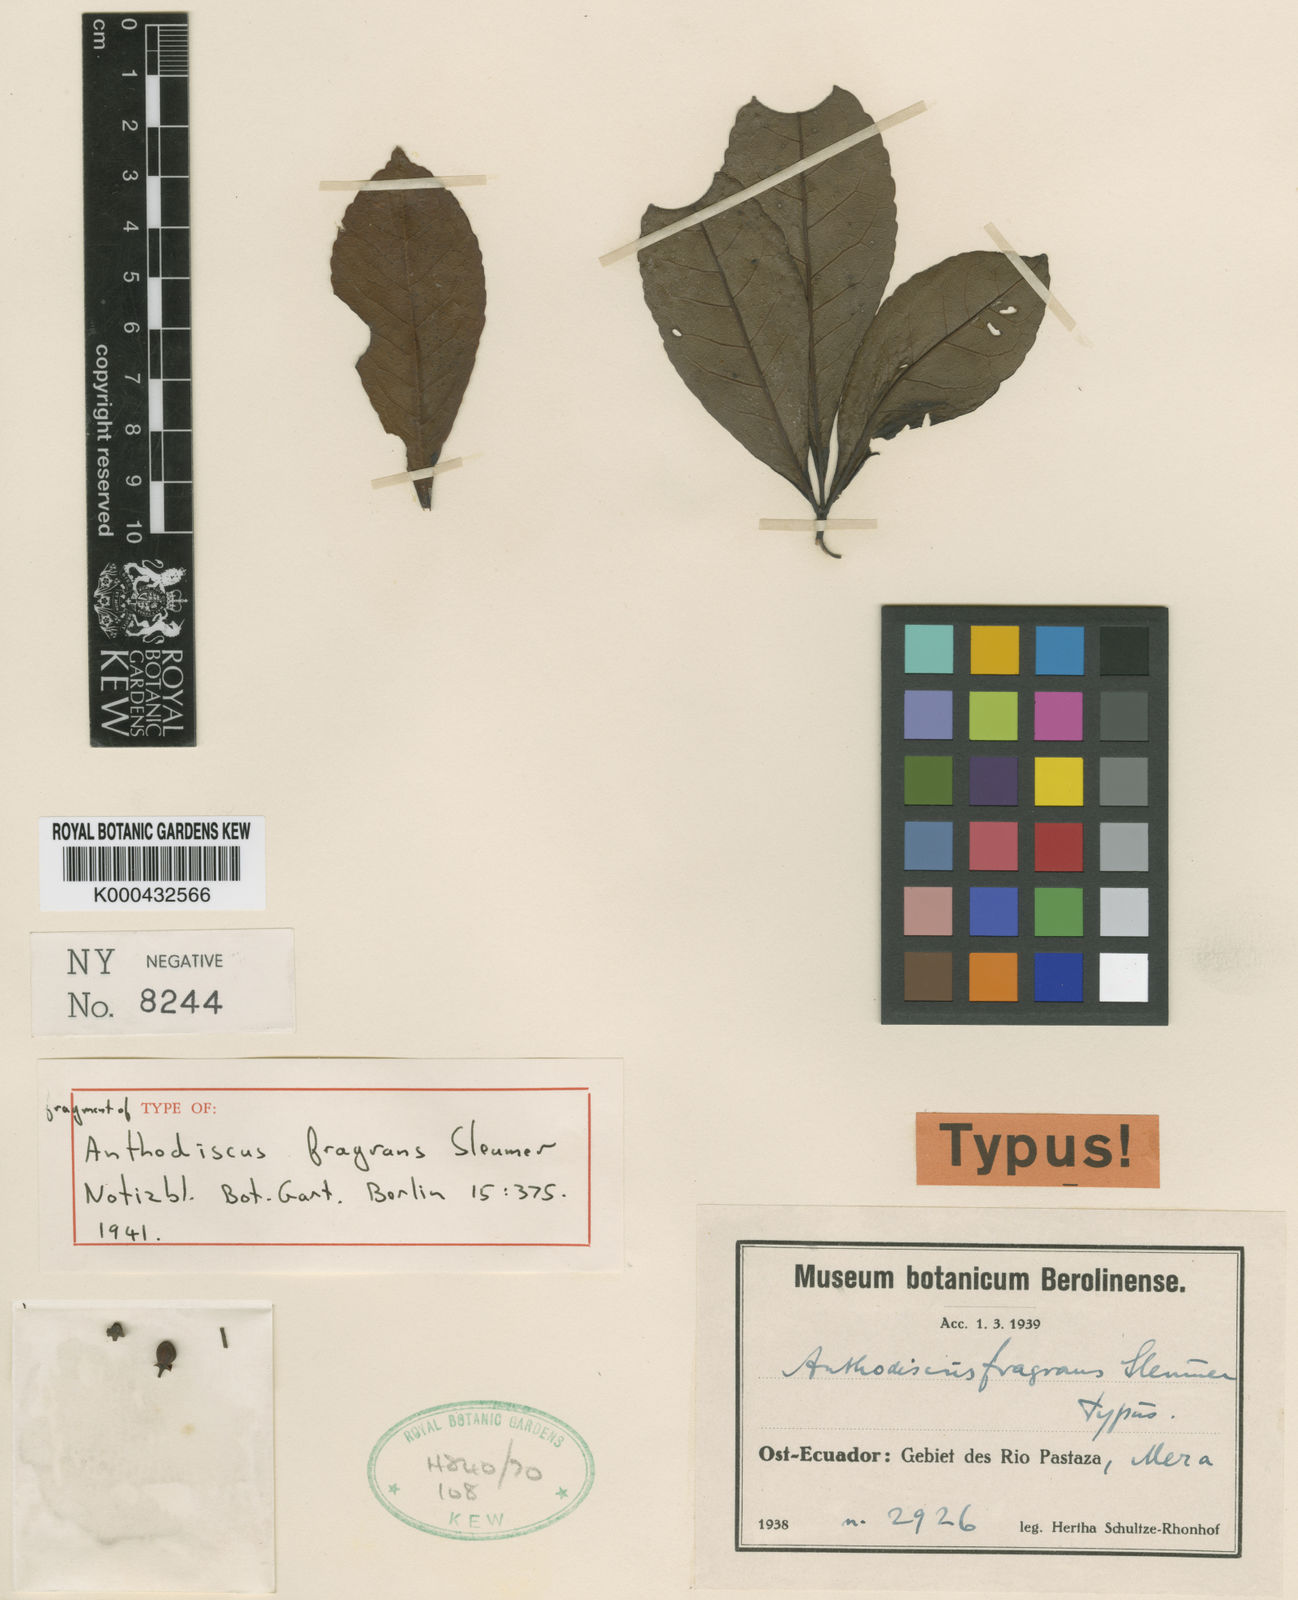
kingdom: Plantae
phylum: Tracheophyta
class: Magnoliopsida
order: Malpighiales
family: Caryocaraceae
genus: Anthodiscus
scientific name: Anthodiscus fragrans
